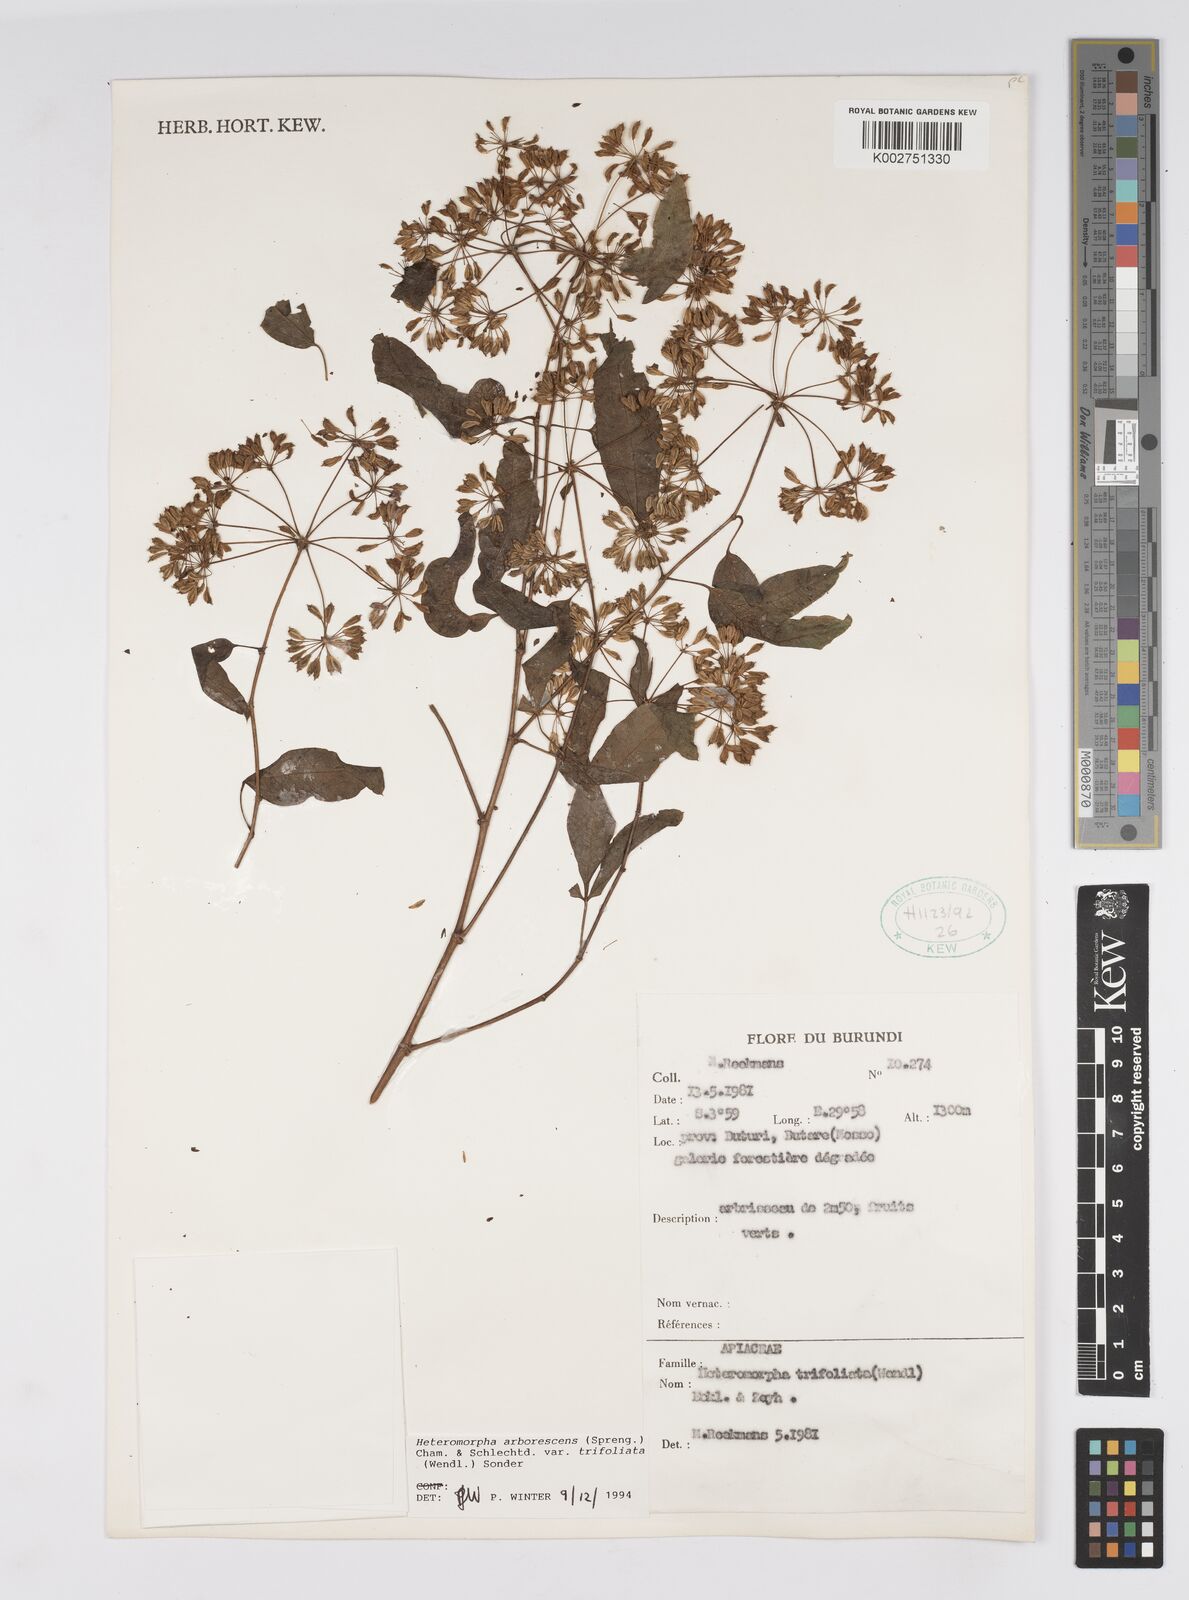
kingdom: Plantae
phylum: Tracheophyta
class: Magnoliopsida
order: Apiales
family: Apiaceae
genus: Heteromorpha
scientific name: Heteromorpha arborescens
